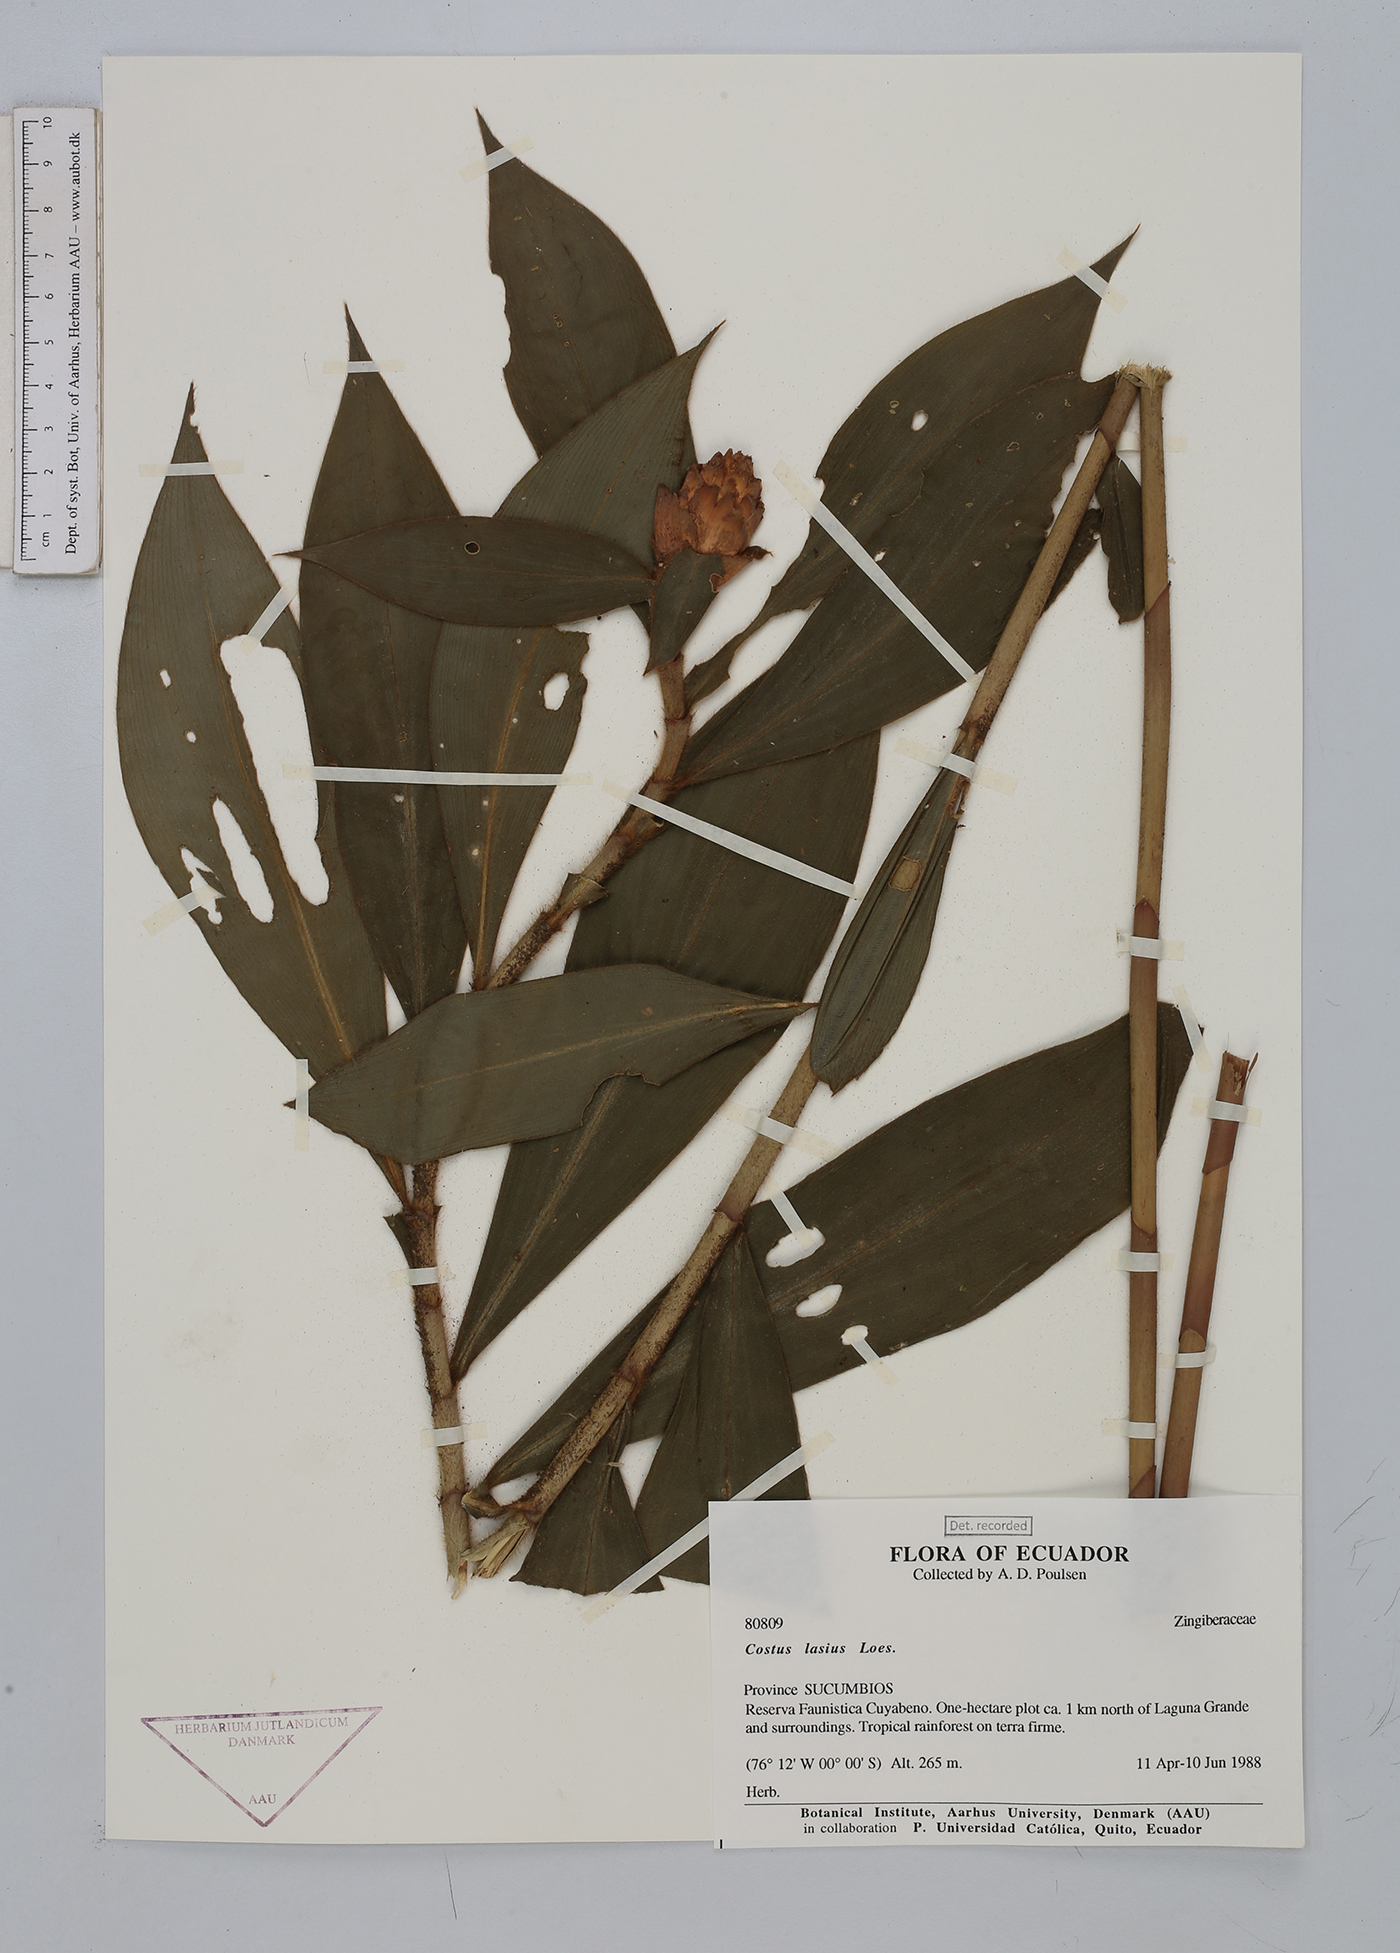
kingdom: Plantae
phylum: Tracheophyta
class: Liliopsida
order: Zingiberales
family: Costaceae
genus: Costus
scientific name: Costus lasius
